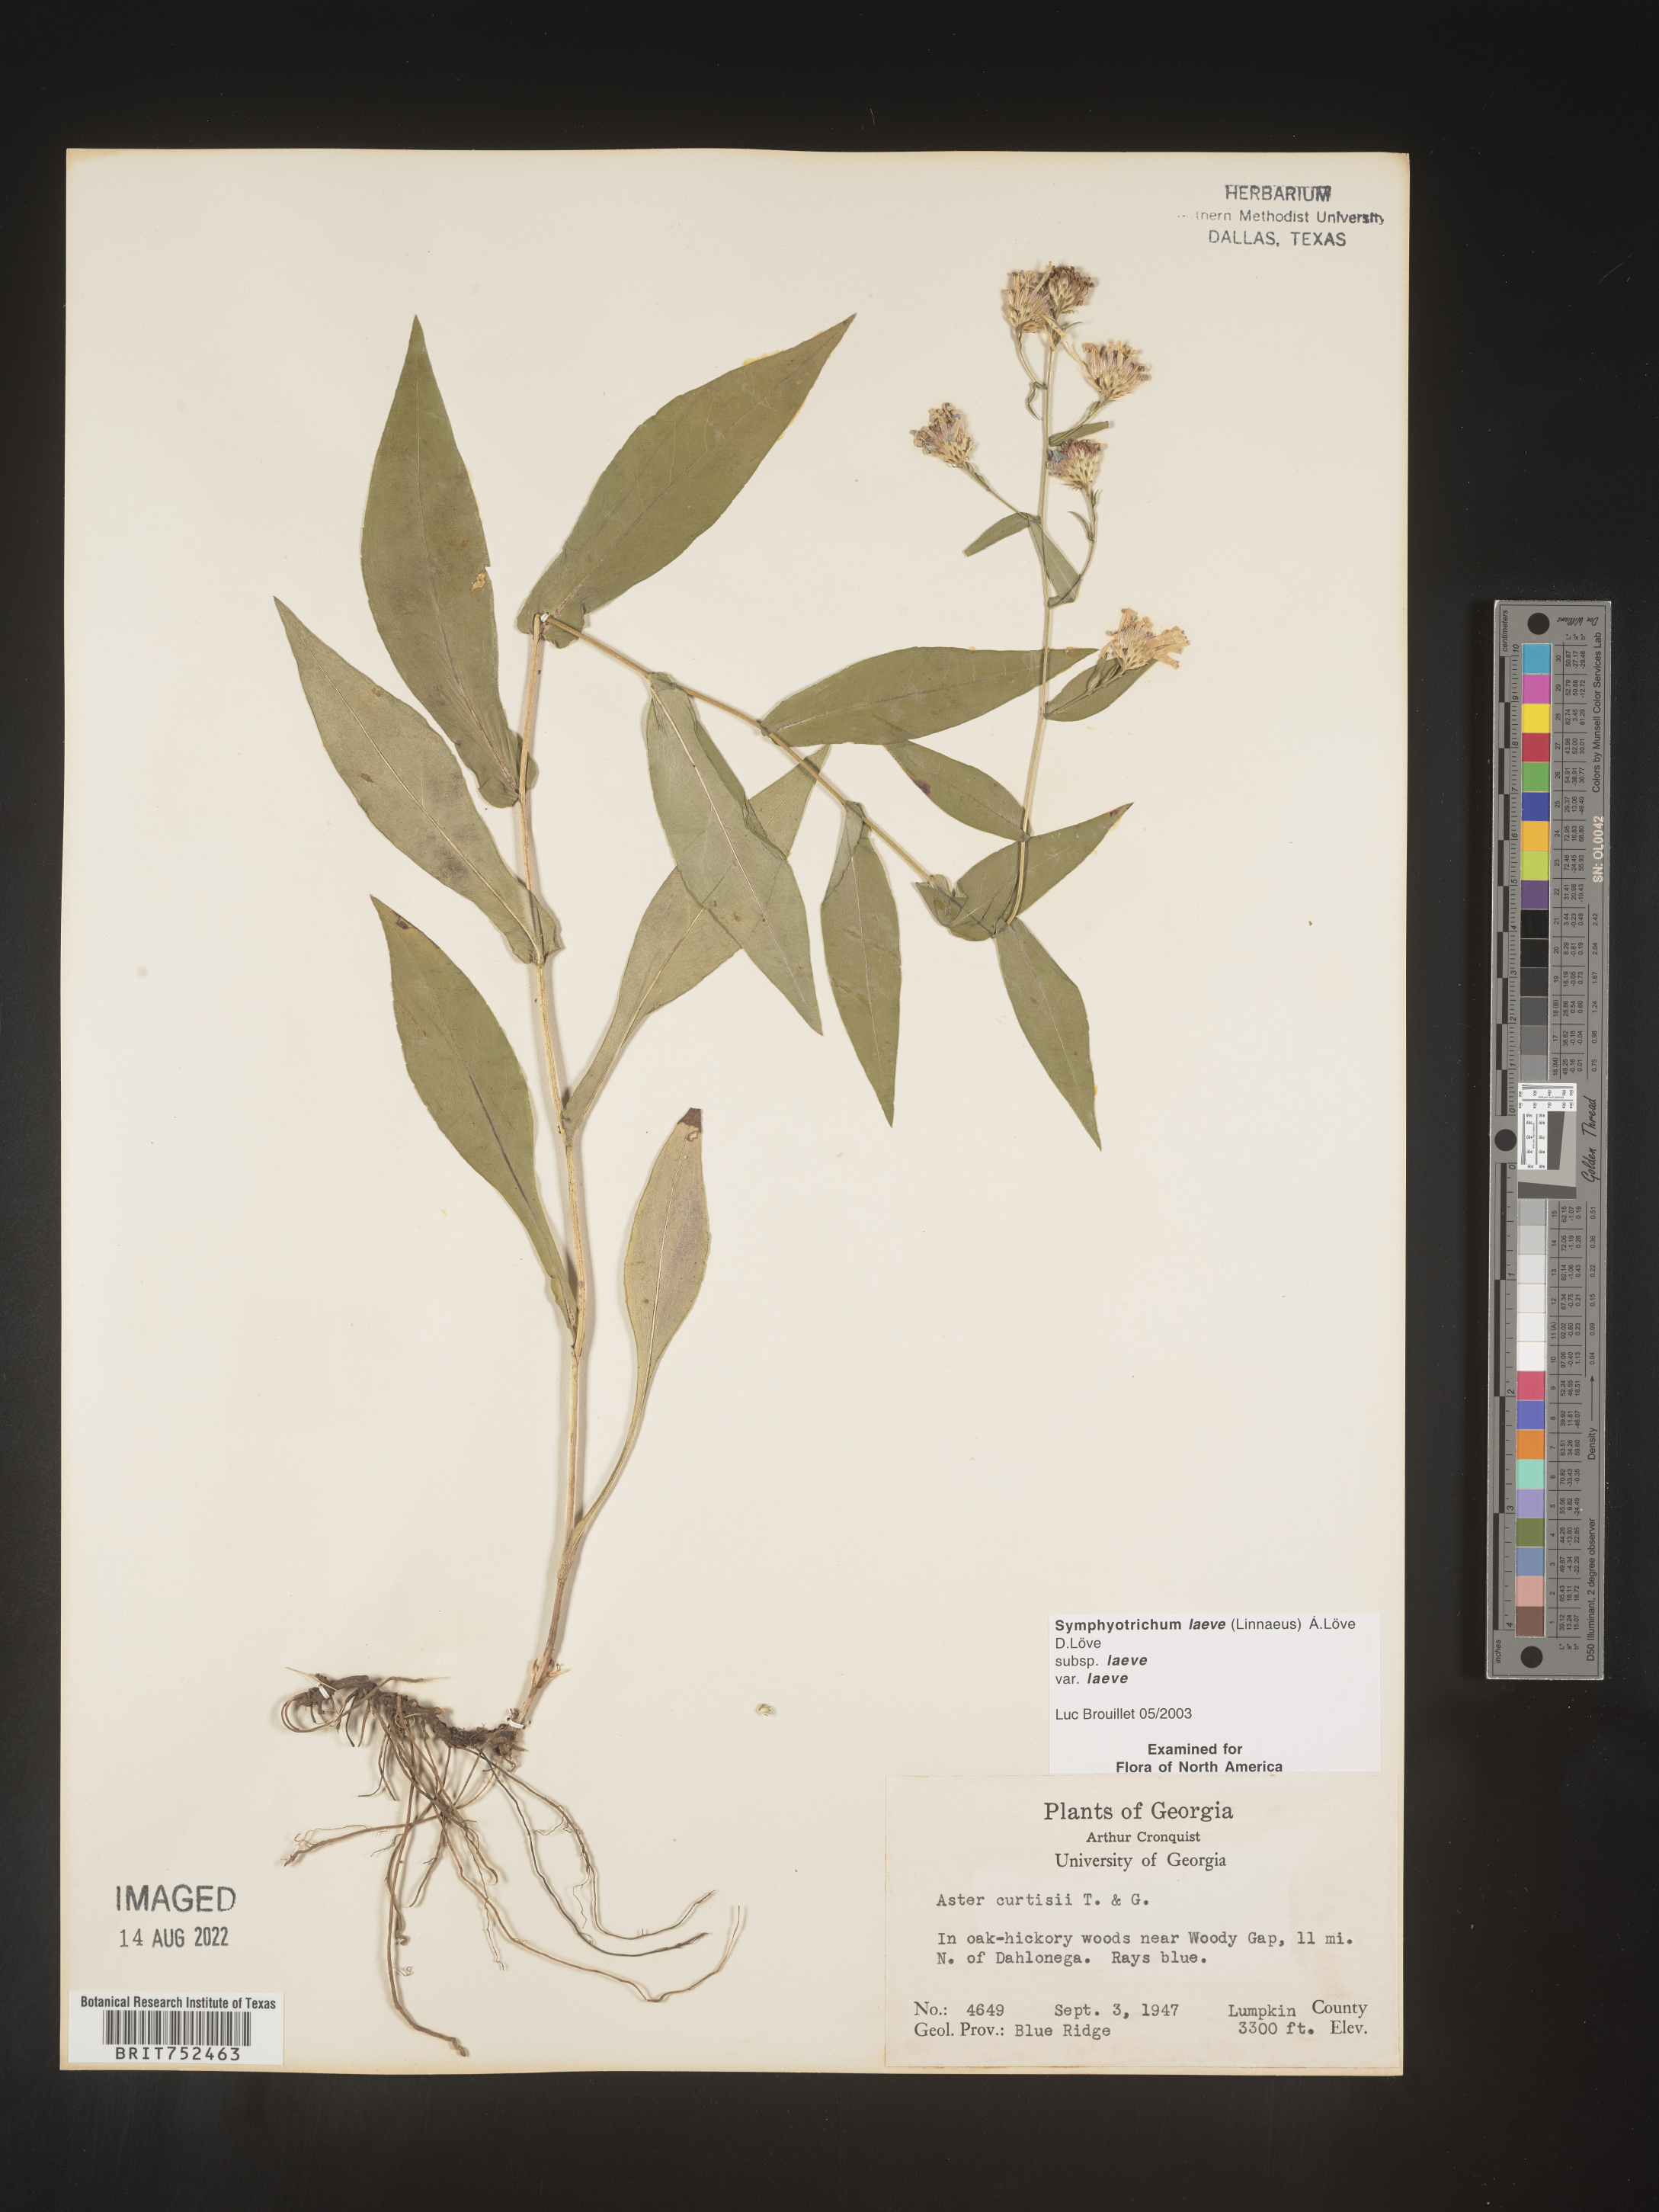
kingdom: Plantae
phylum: Tracheophyta
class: Magnoliopsida
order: Asterales
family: Asteraceae
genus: Symphyotrichum
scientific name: Symphyotrichum laeve
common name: Glaucous aster
